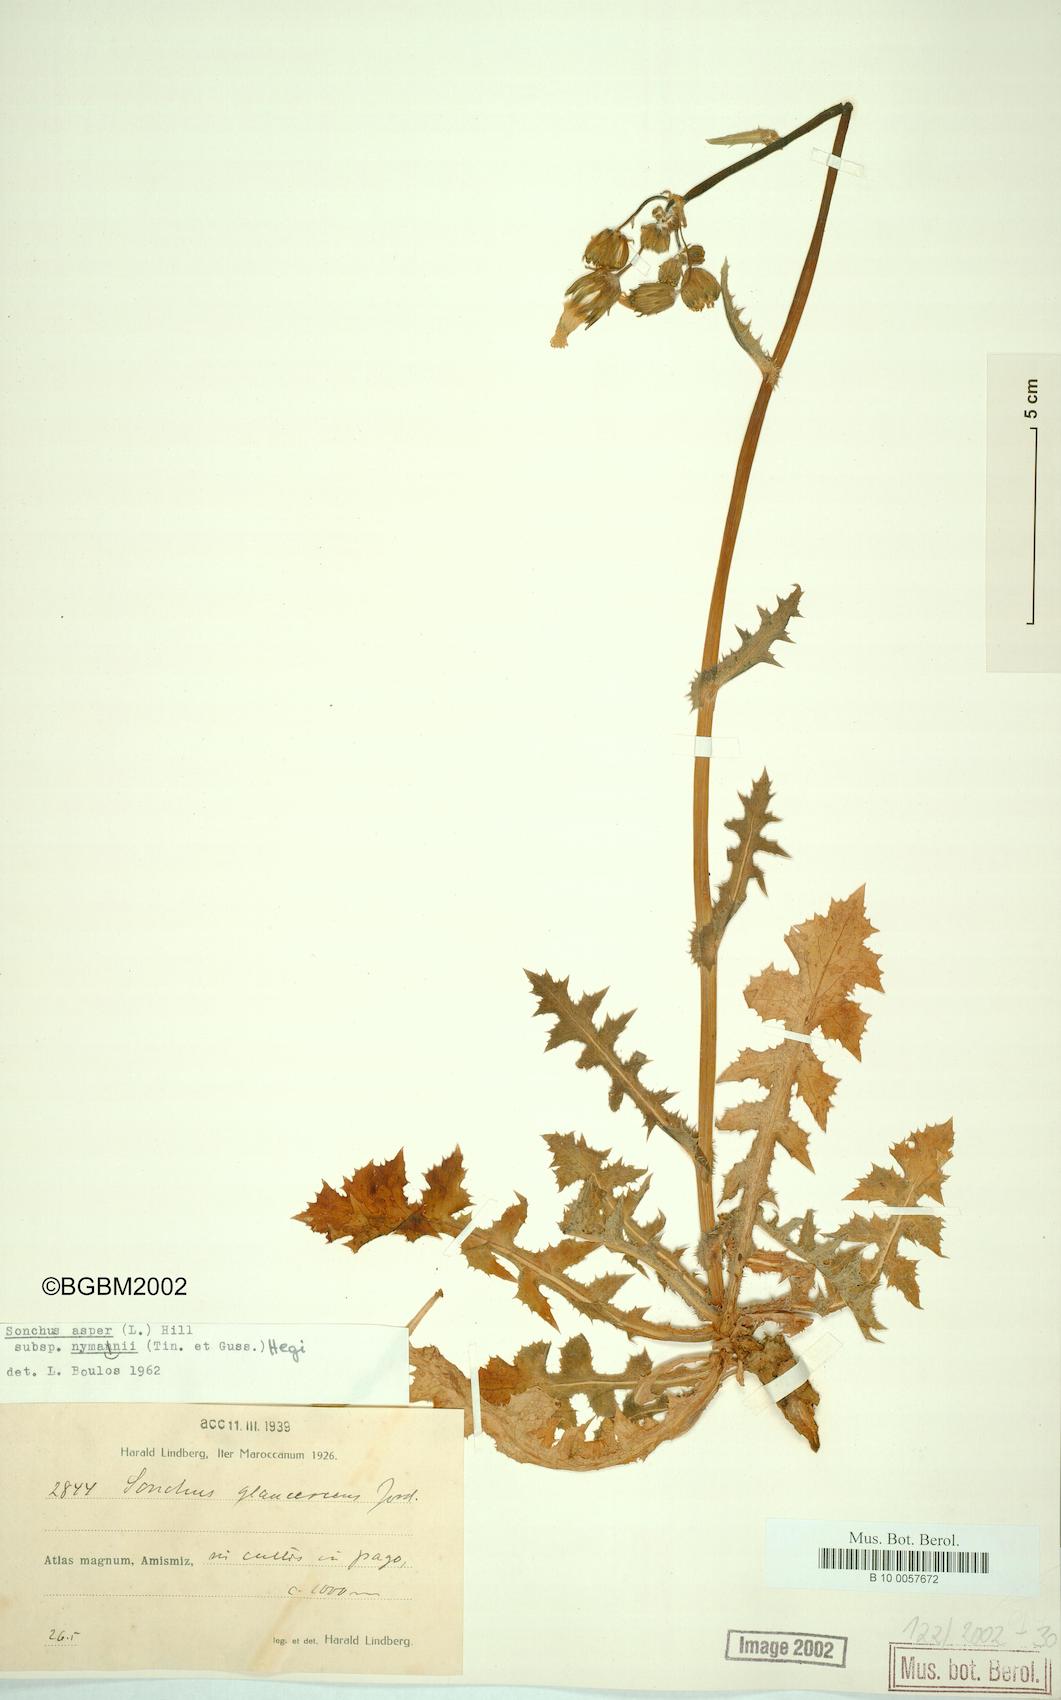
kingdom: Plantae
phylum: Tracheophyta
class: Magnoliopsida
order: Asterales
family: Asteraceae
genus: Sonchus
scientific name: Sonchus asper
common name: Prickly sow-thistle
